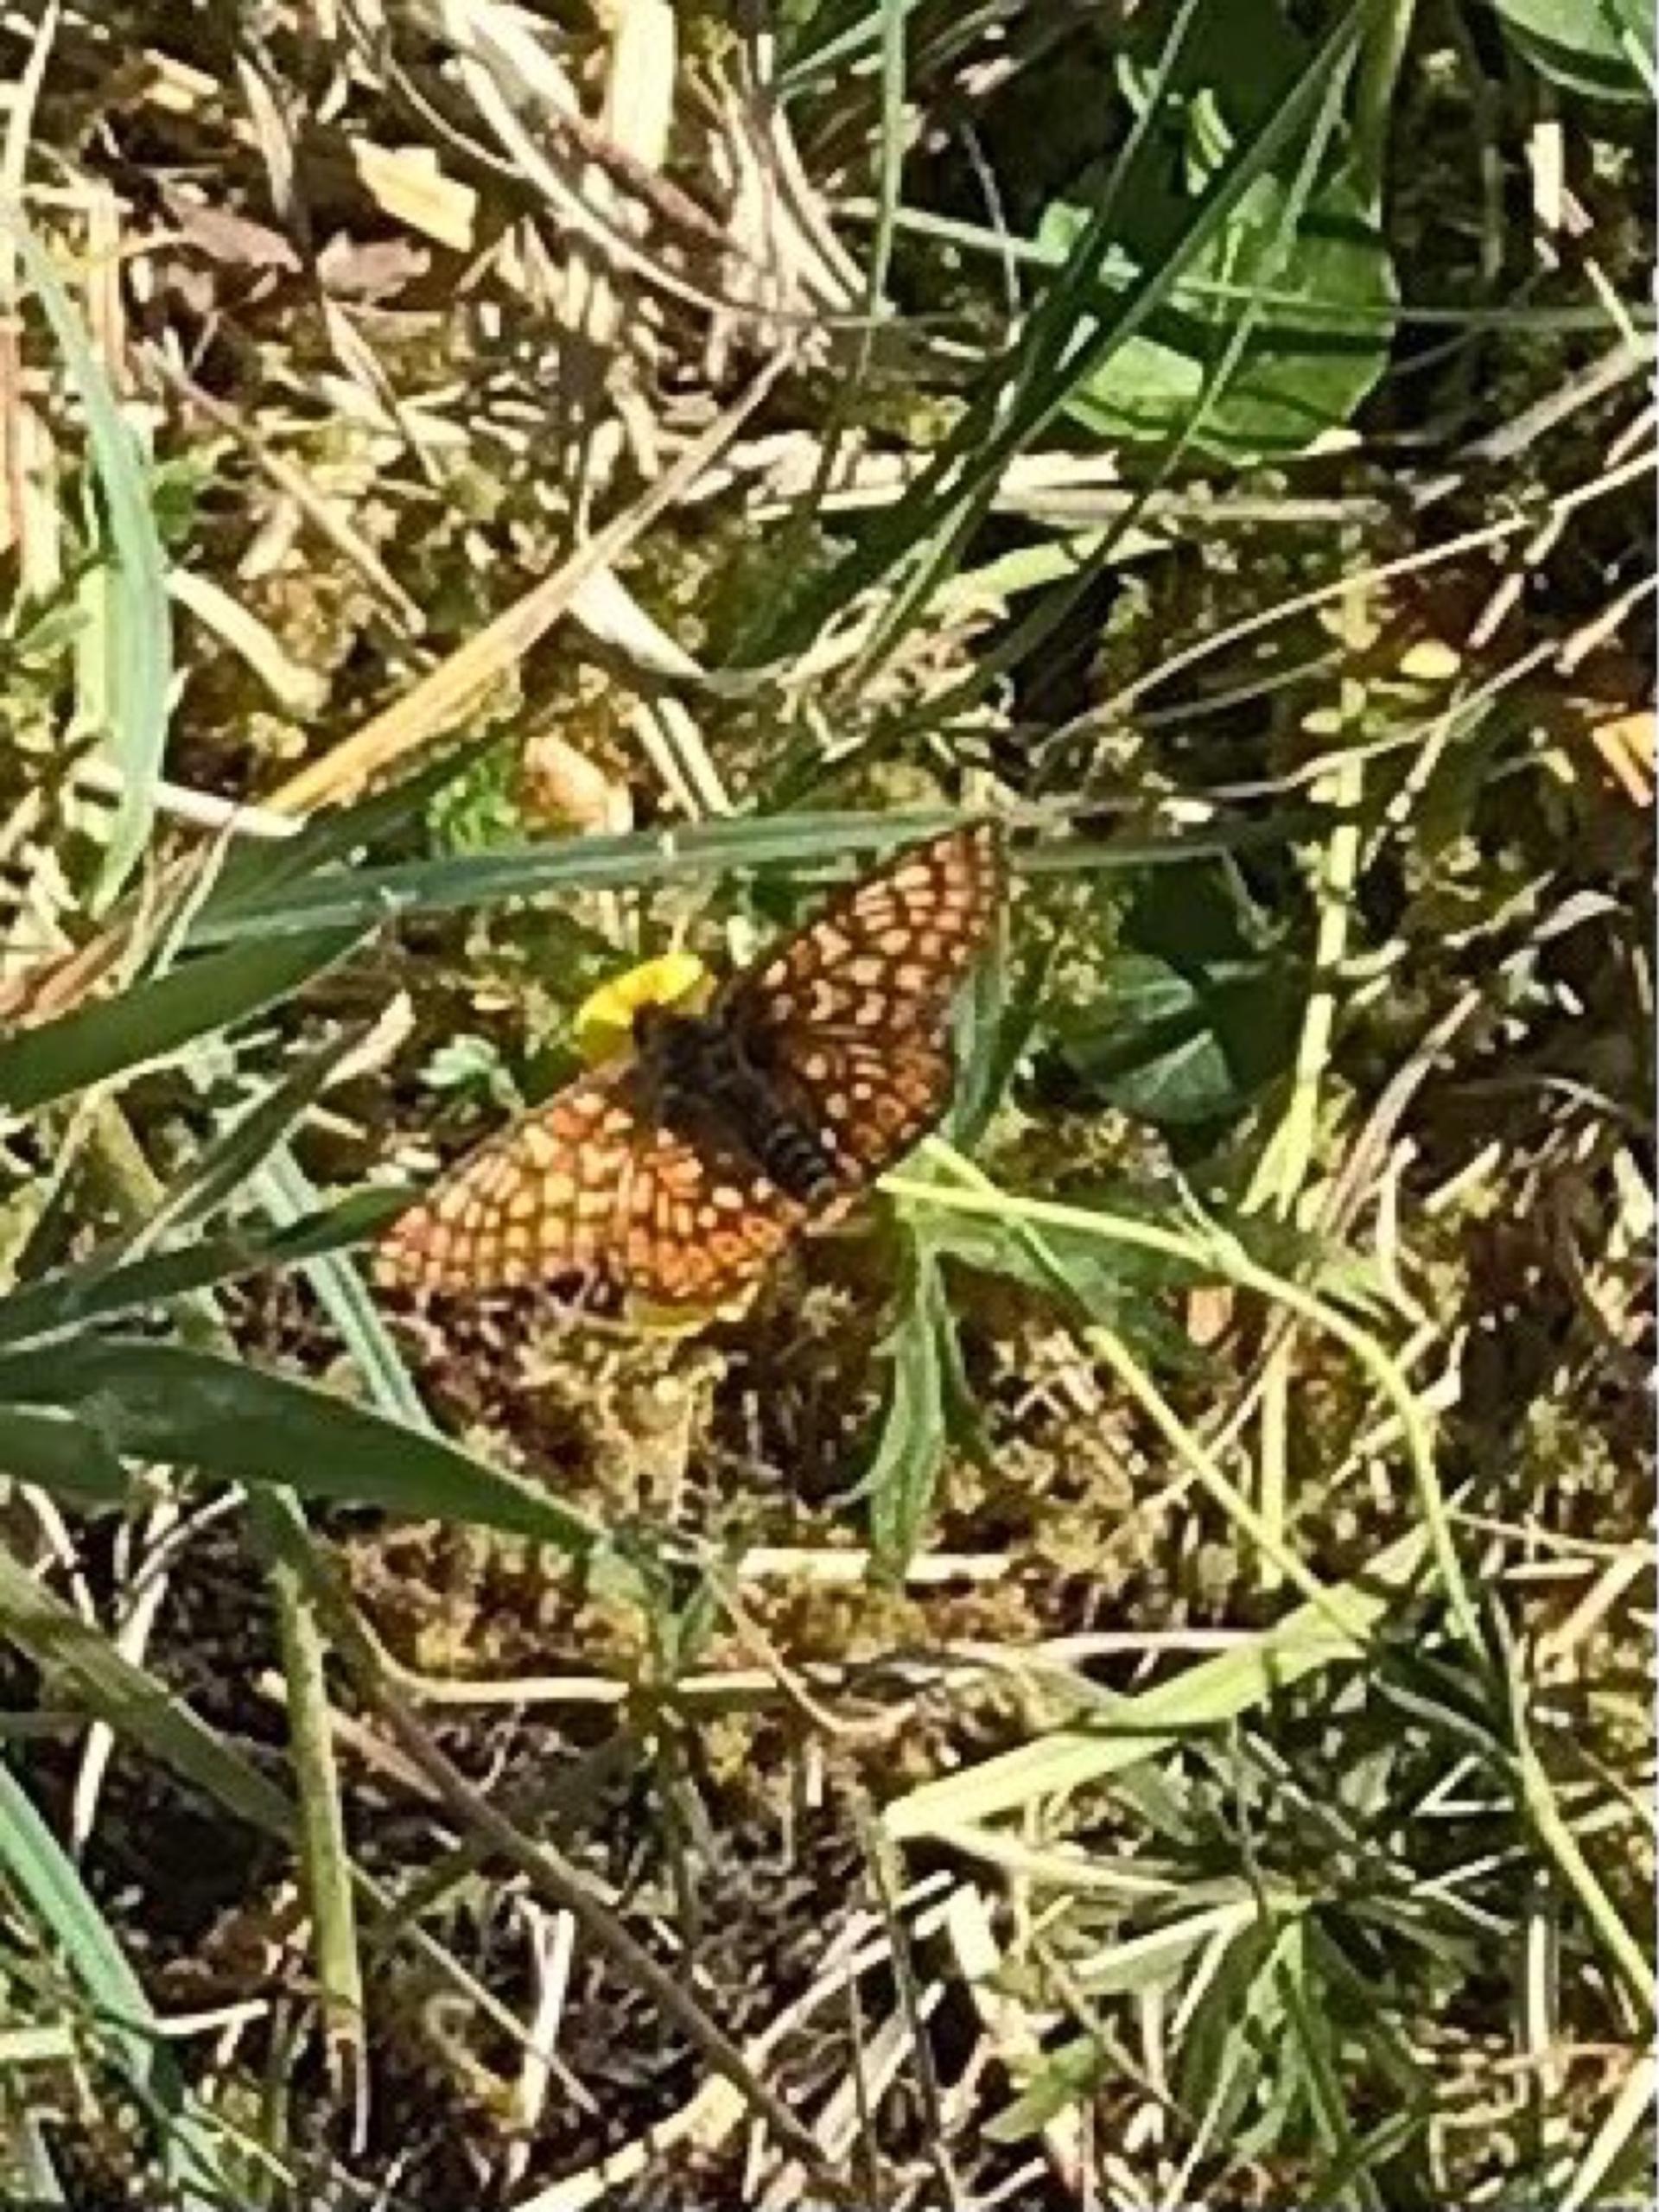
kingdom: Animalia
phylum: Arthropoda
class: Insecta
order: Lepidoptera
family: Nymphalidae
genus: Euphydryas
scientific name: Euphydryas aurinia
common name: Hedepletvinge
